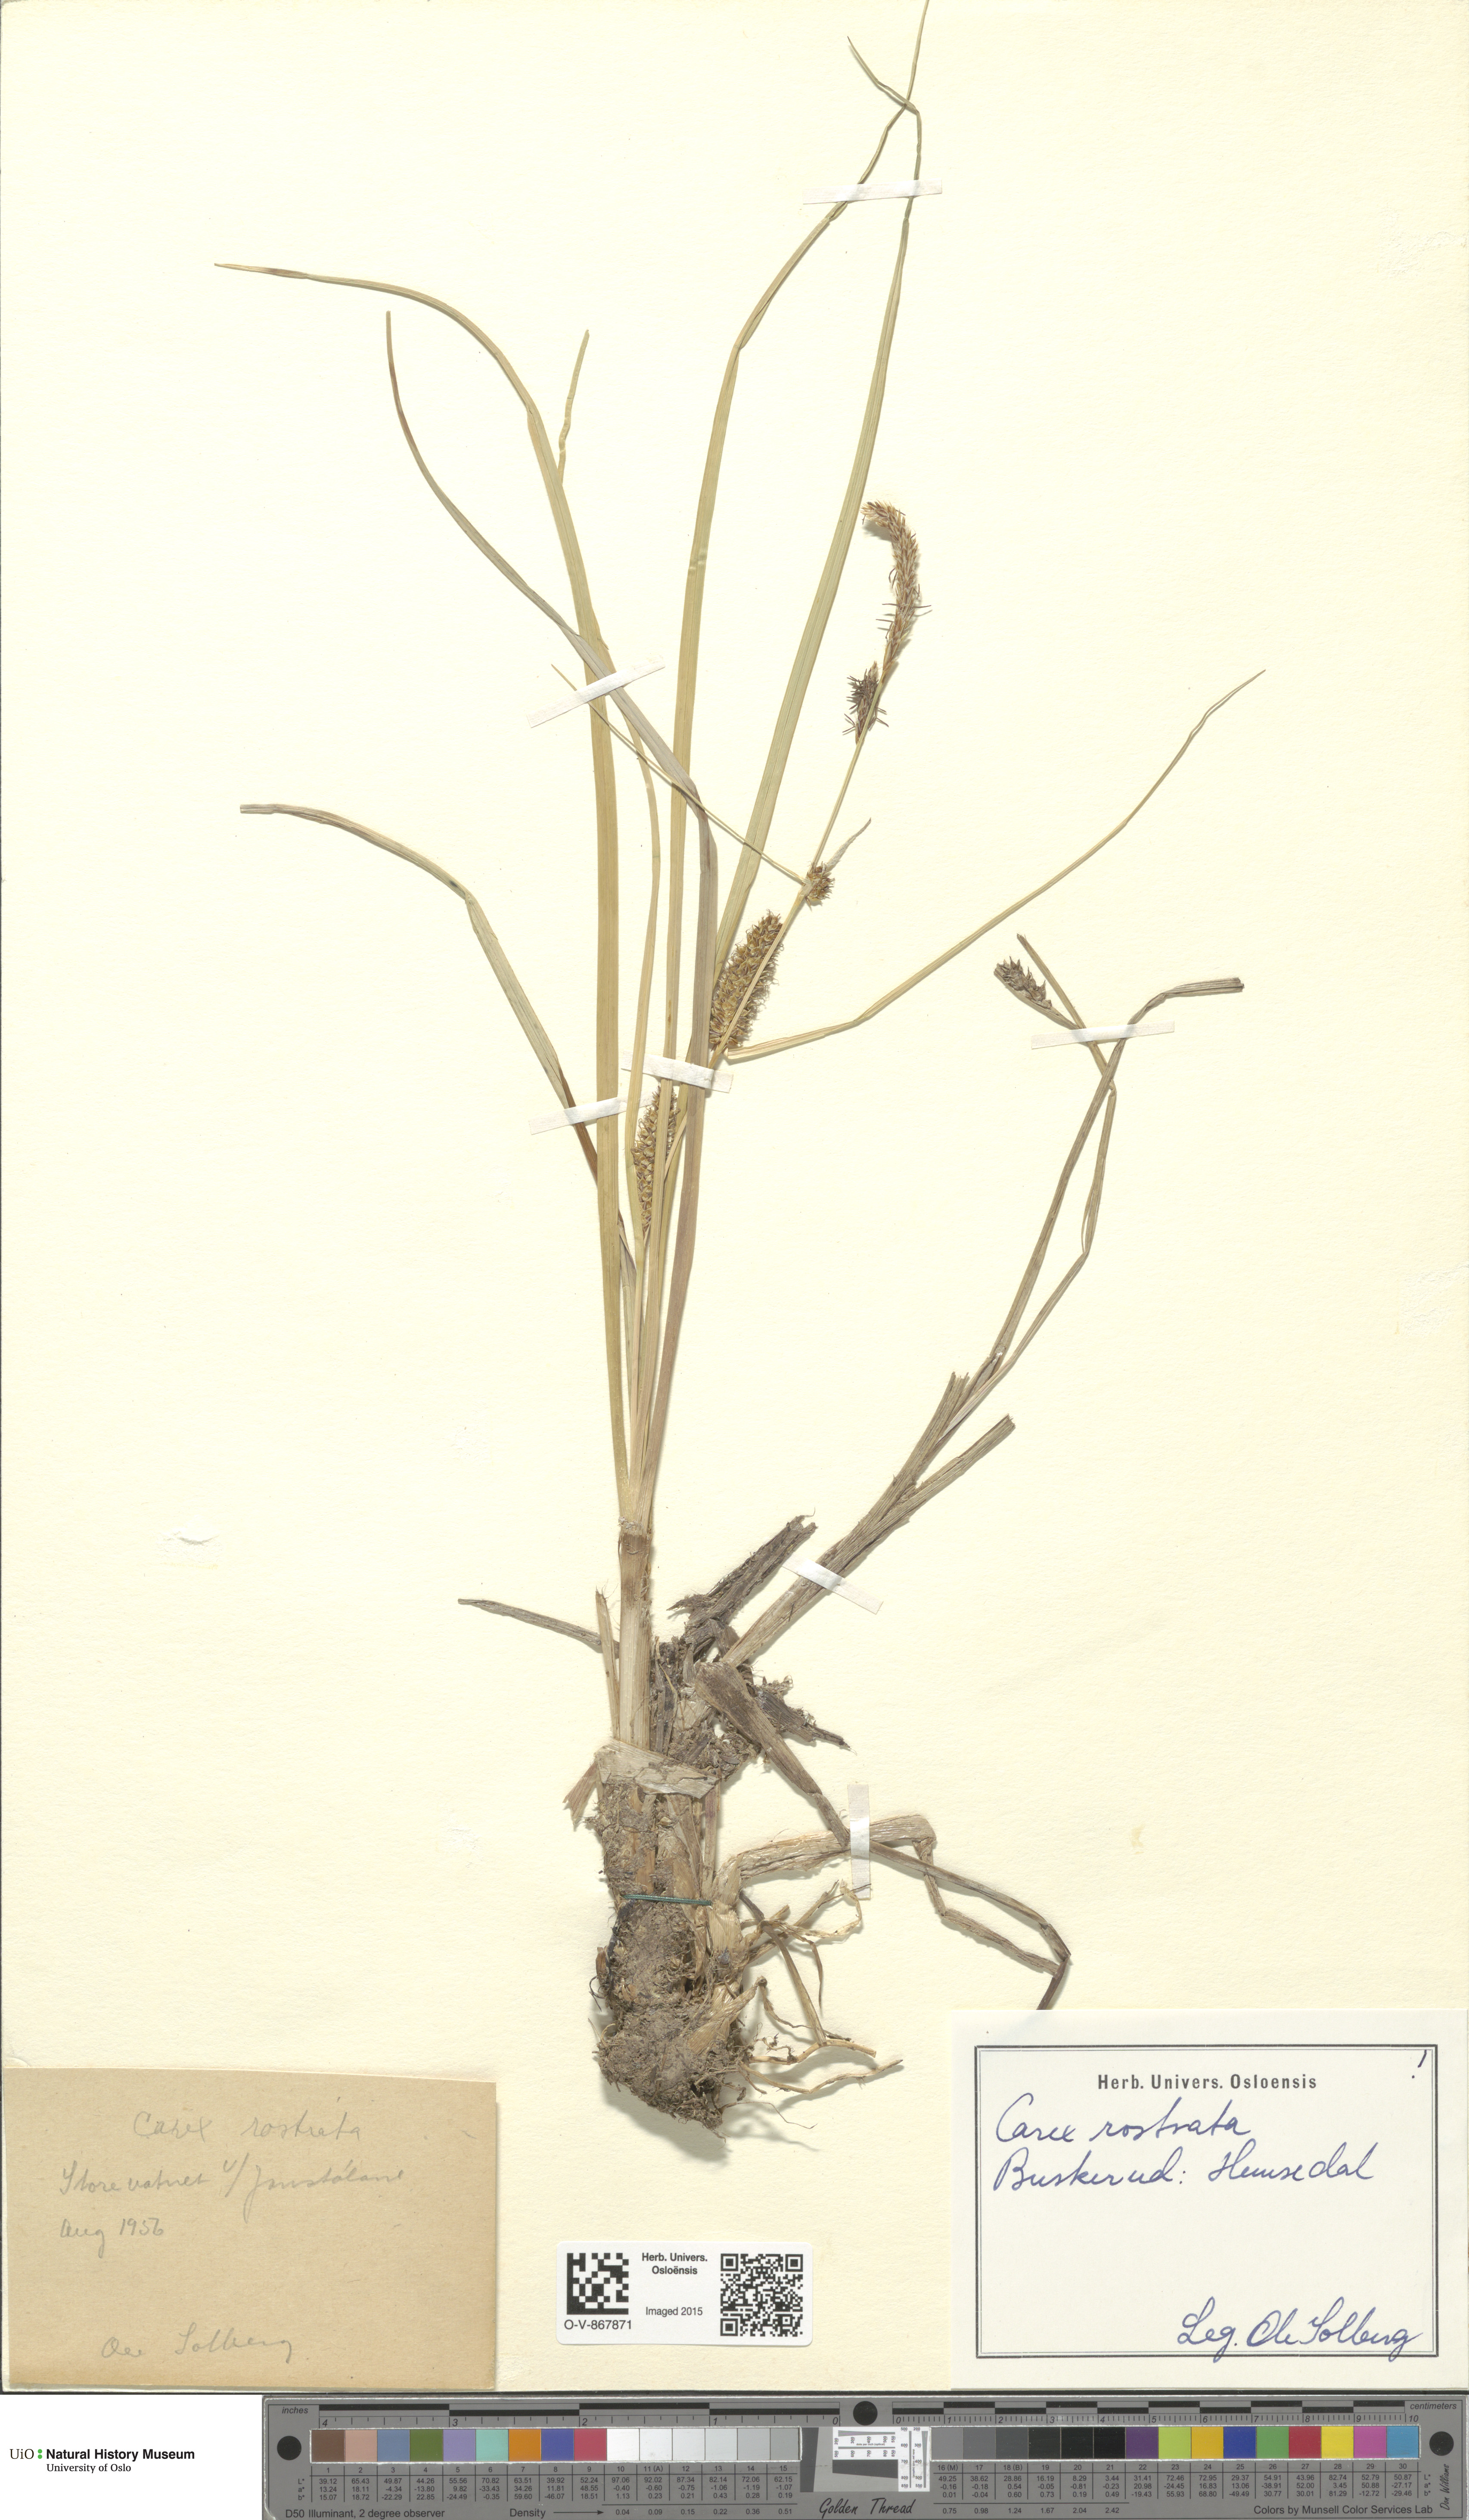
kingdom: Plantae
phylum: Tracheophyta
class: Liliopsida
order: Poales
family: Cyperaceae
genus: Carex
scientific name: Carex rostrata
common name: Bottle sedge
